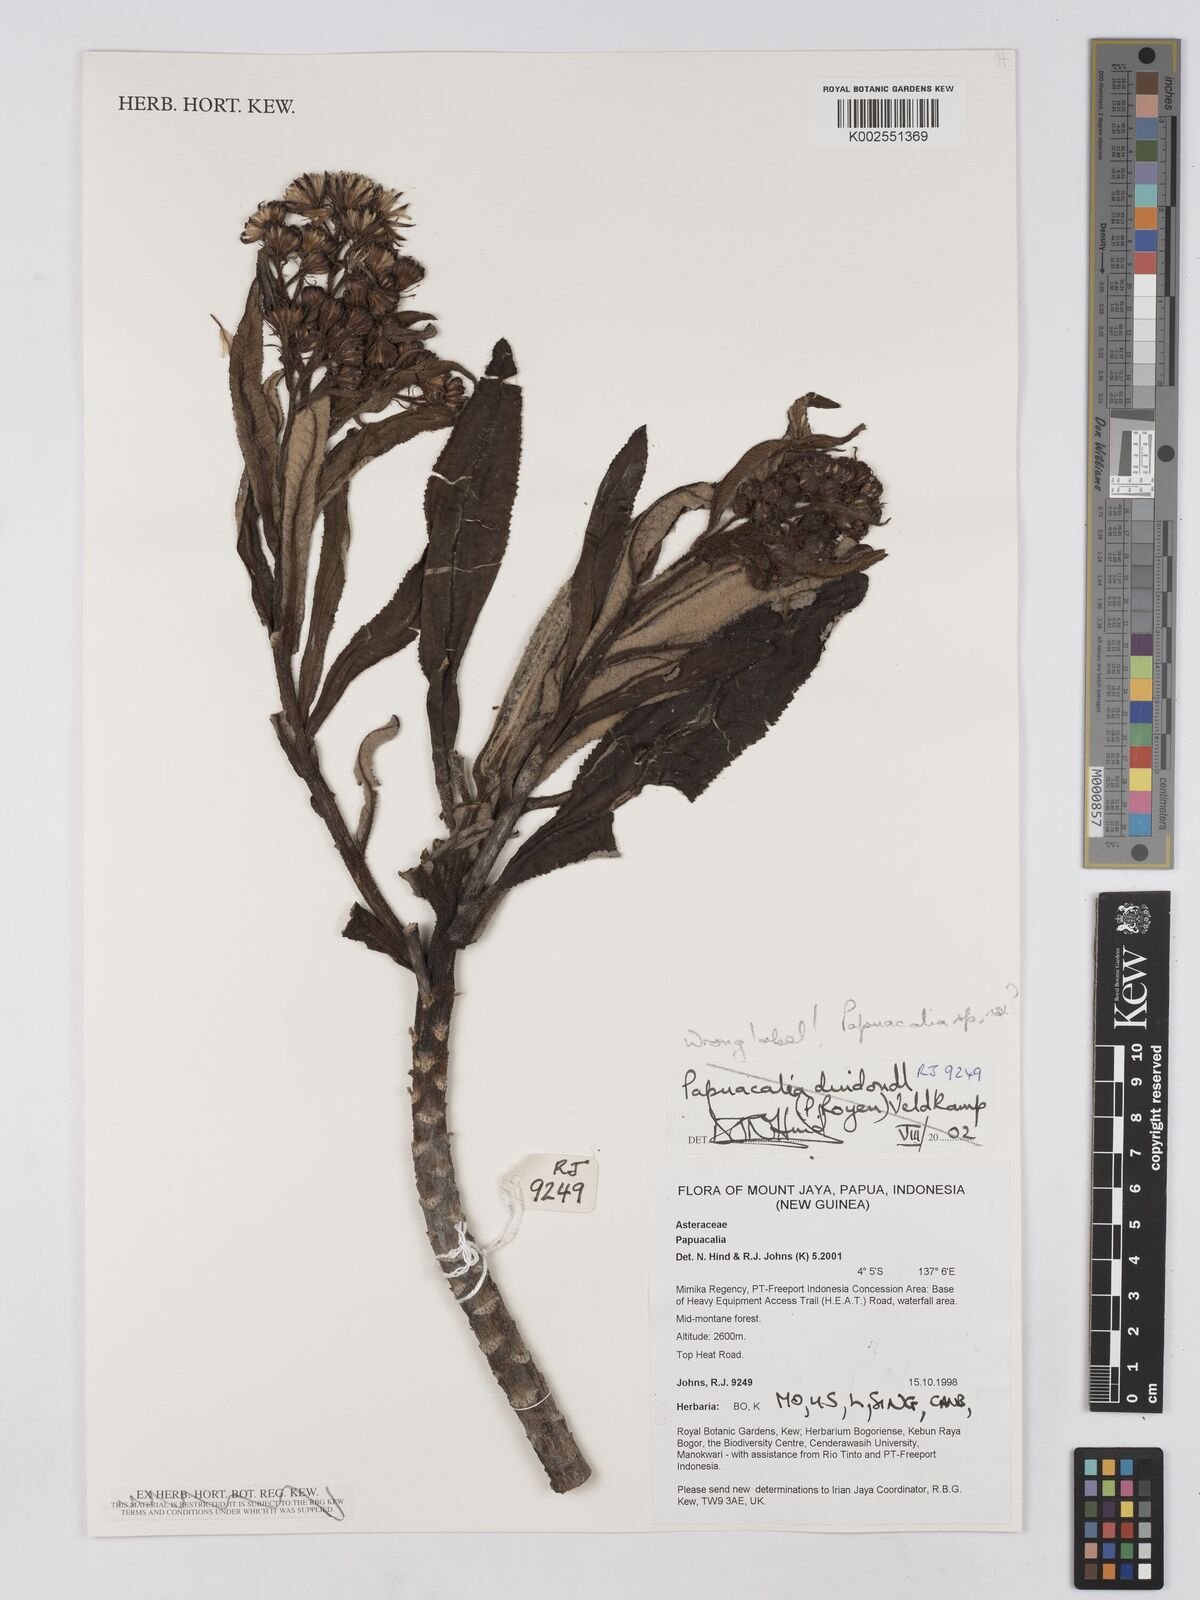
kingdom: Plantae
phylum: Tracheophyta
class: Magnoliopsida
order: Asterales
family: Asteraceae
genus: Papuacalia
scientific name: Papuacalia
